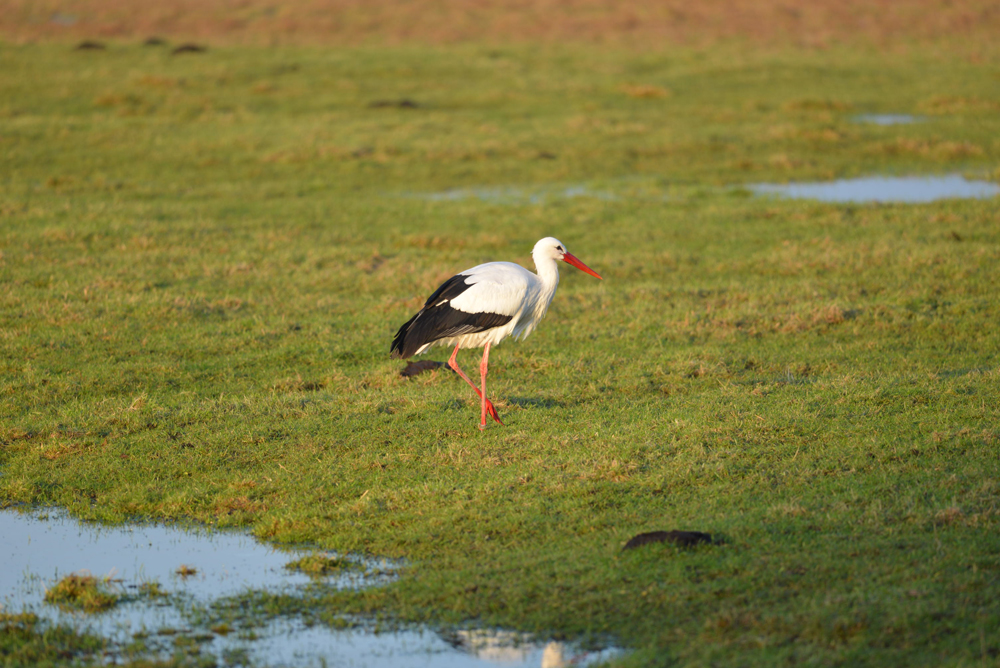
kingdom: Animalia
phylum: Chordata
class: Aves
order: Ciconiiformes
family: Ciconiidae
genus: Ciconia
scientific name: Ciconia ciconia
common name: White stork
